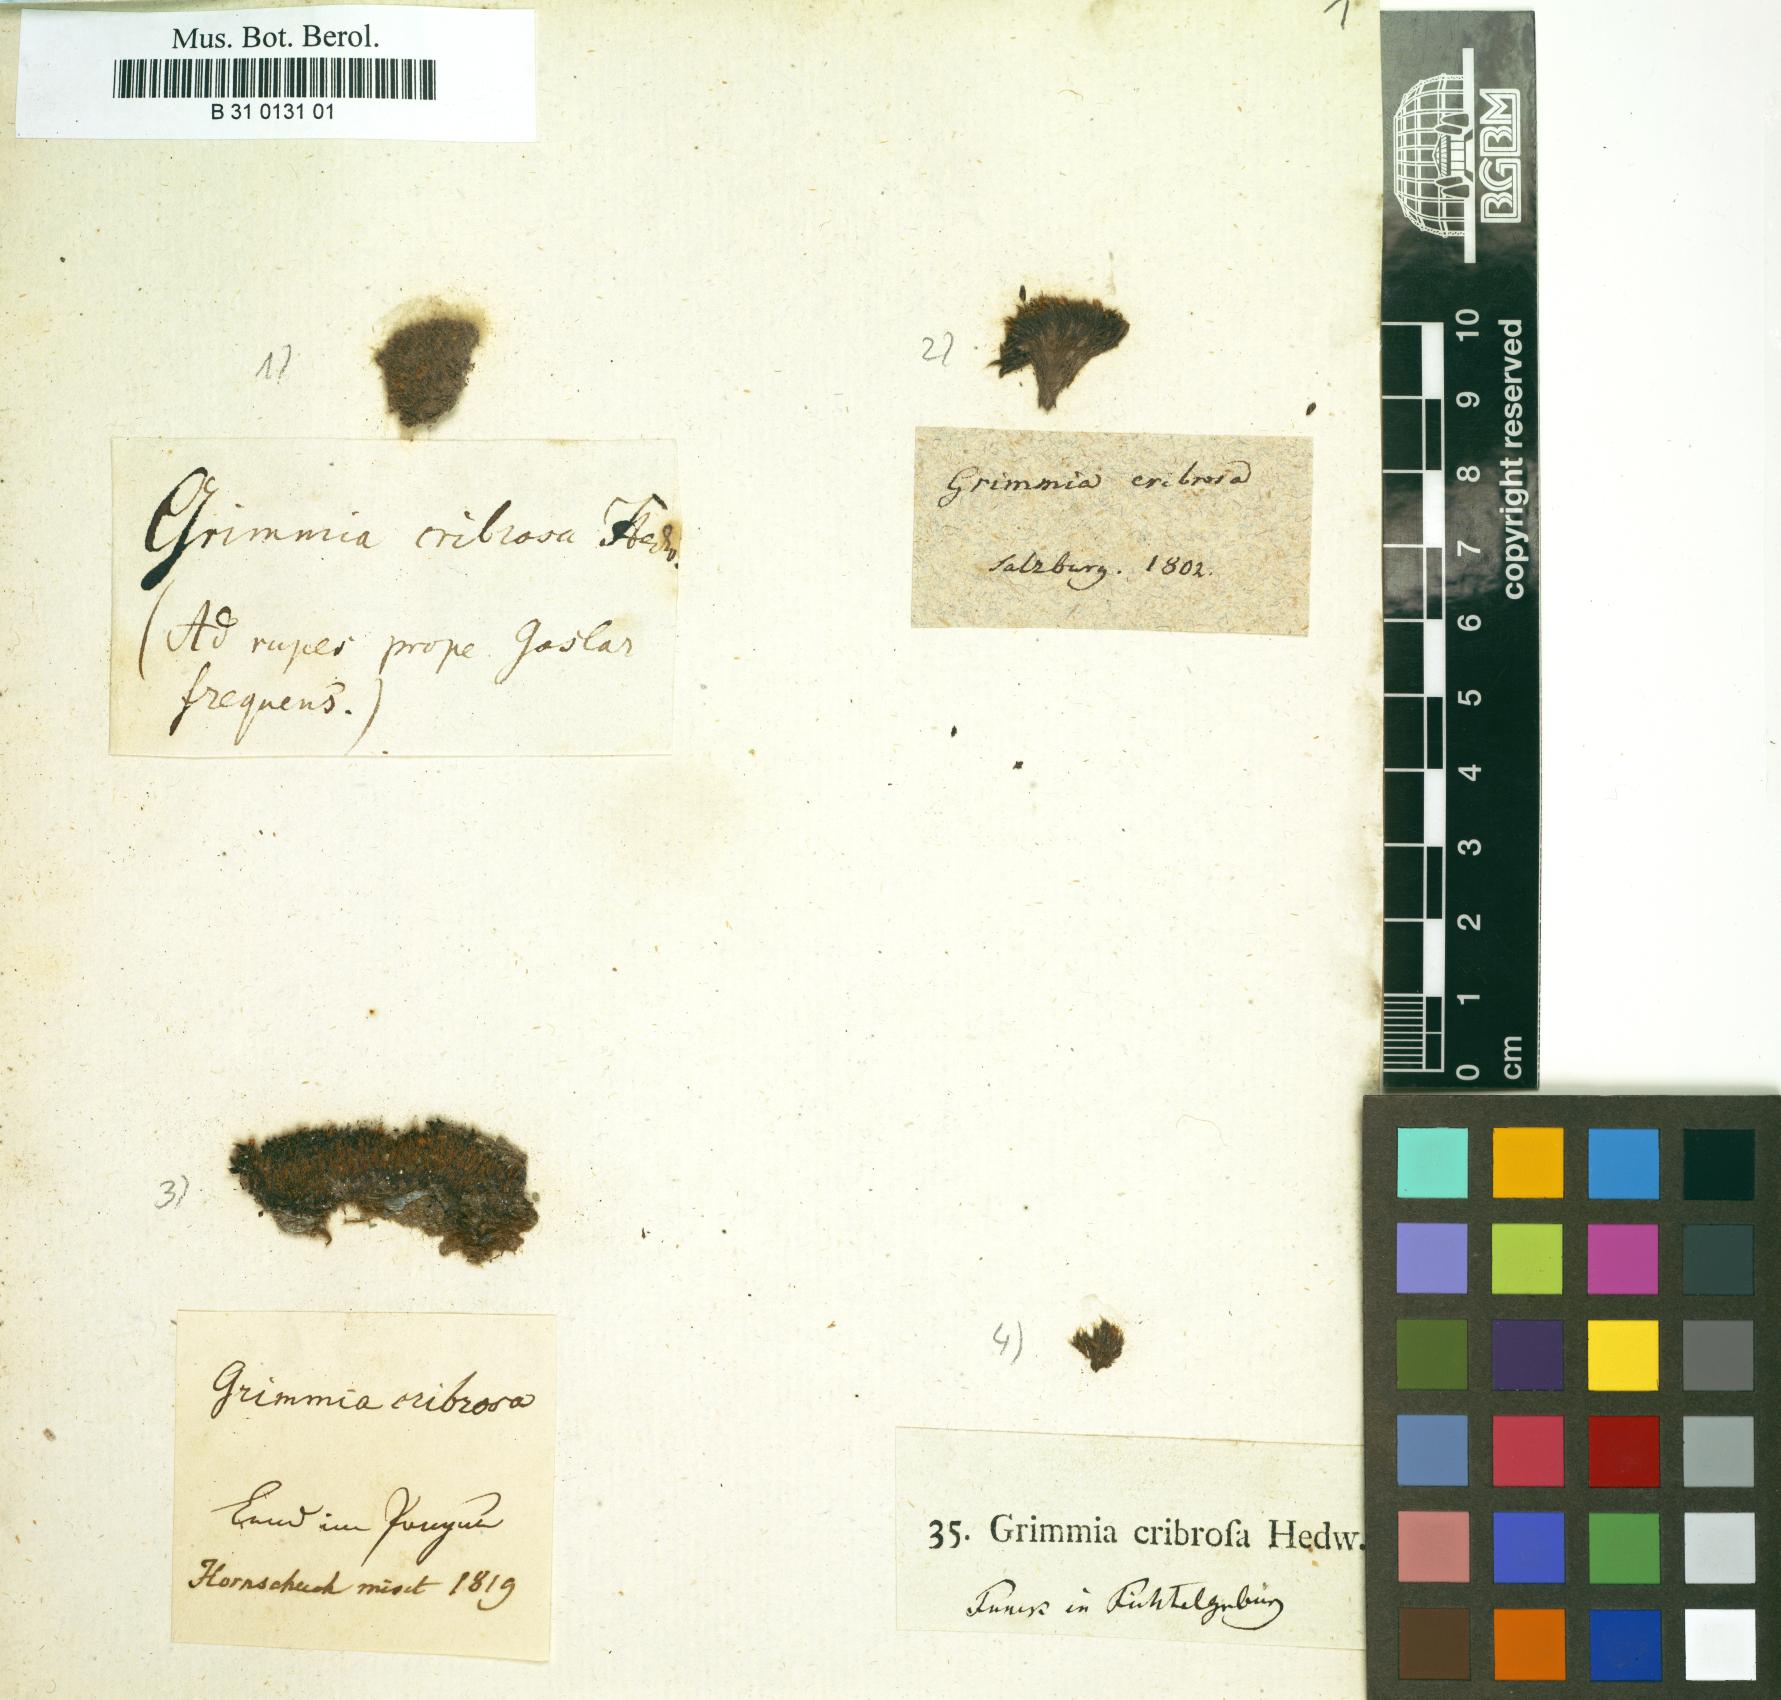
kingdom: Plantae
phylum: Bryophyta
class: Bryopsida
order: Grimmiales
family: Grimmiaceae
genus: Coscinodon
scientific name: Coscinodon cribrosus
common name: Sieve-tooth moss
